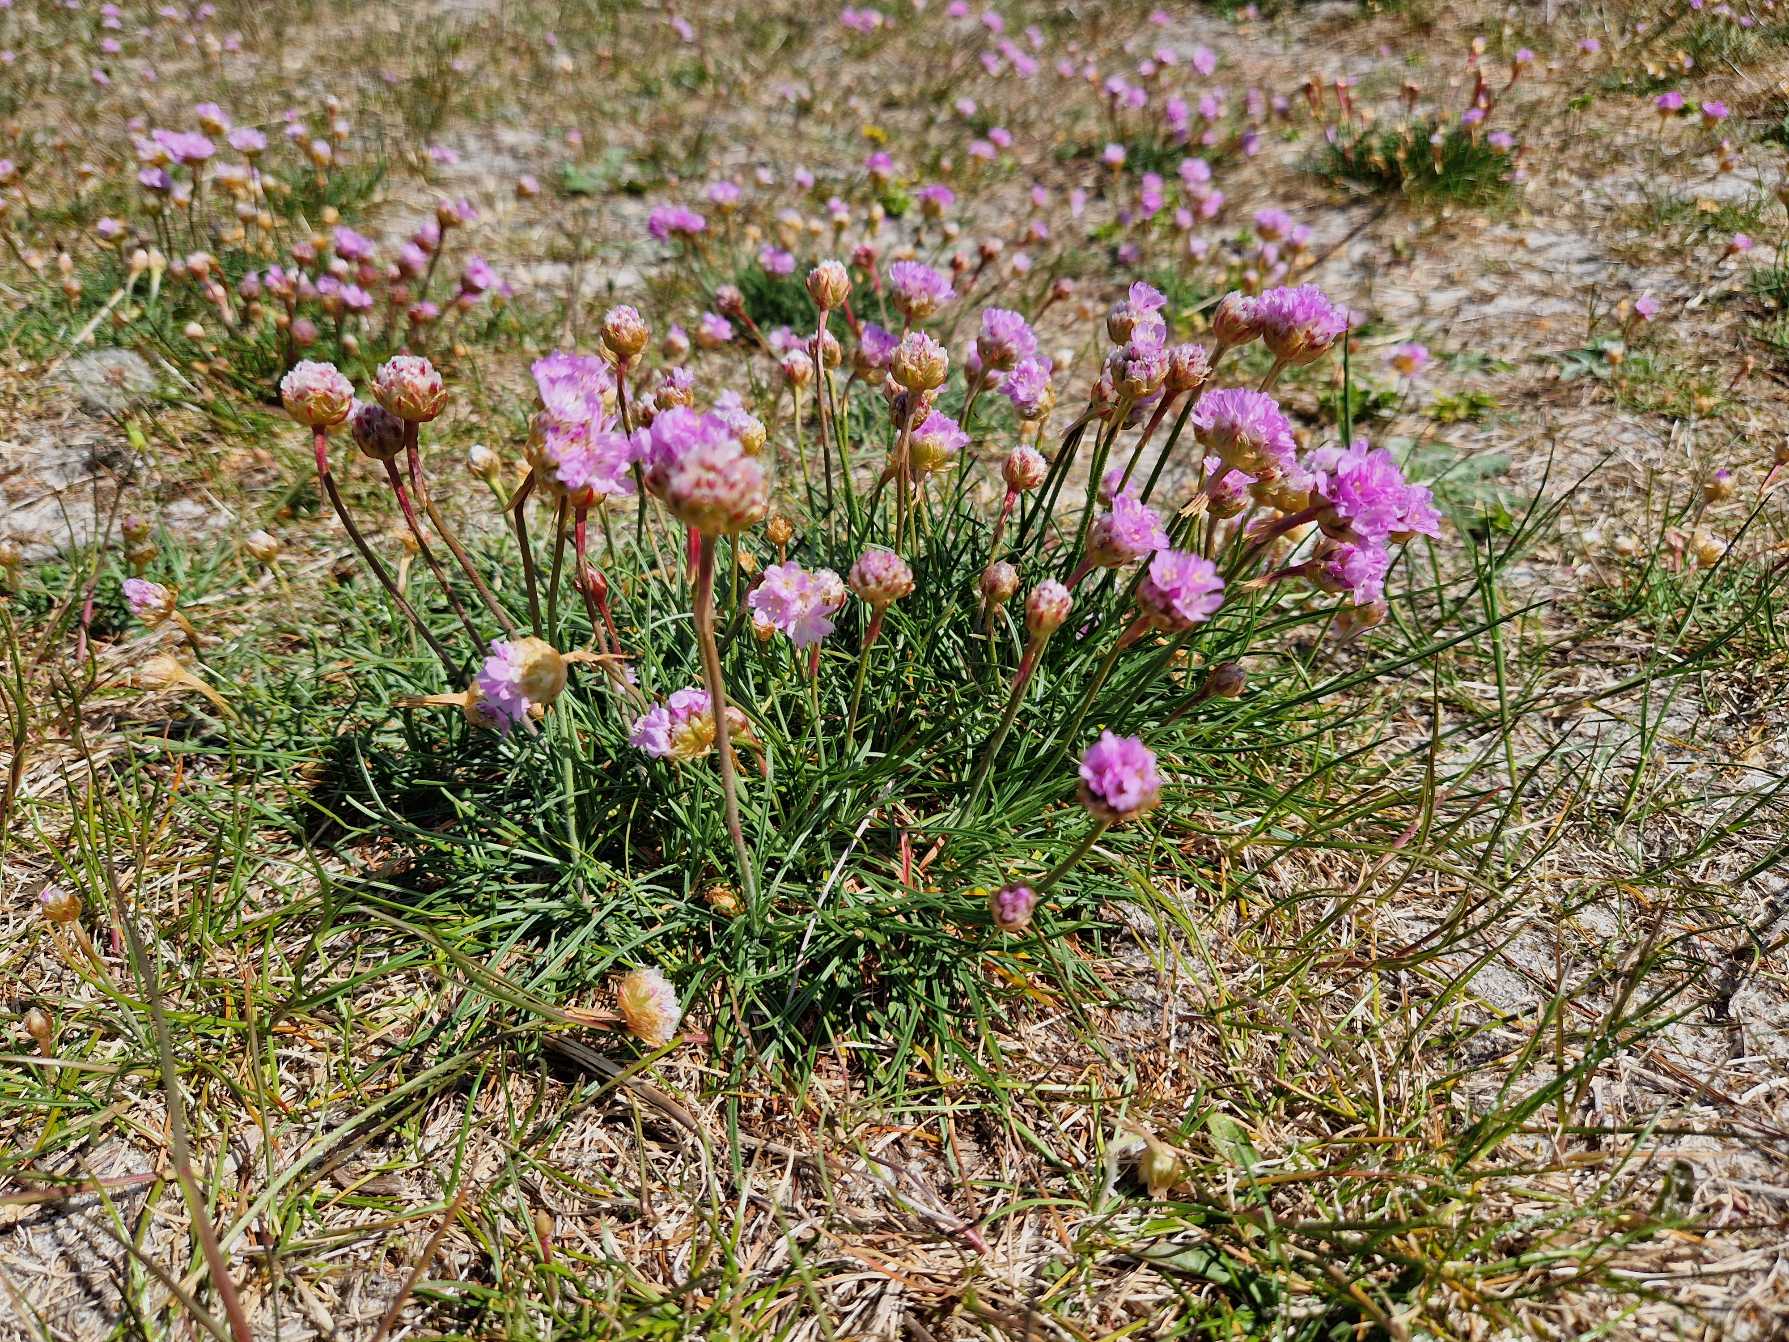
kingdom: Plantae
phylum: Tracheophyta
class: Magnoliopsida
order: Caryophyllales
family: Plumbaginaceae
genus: Armeria
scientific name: Armeria maritima
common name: Engelskgræs
